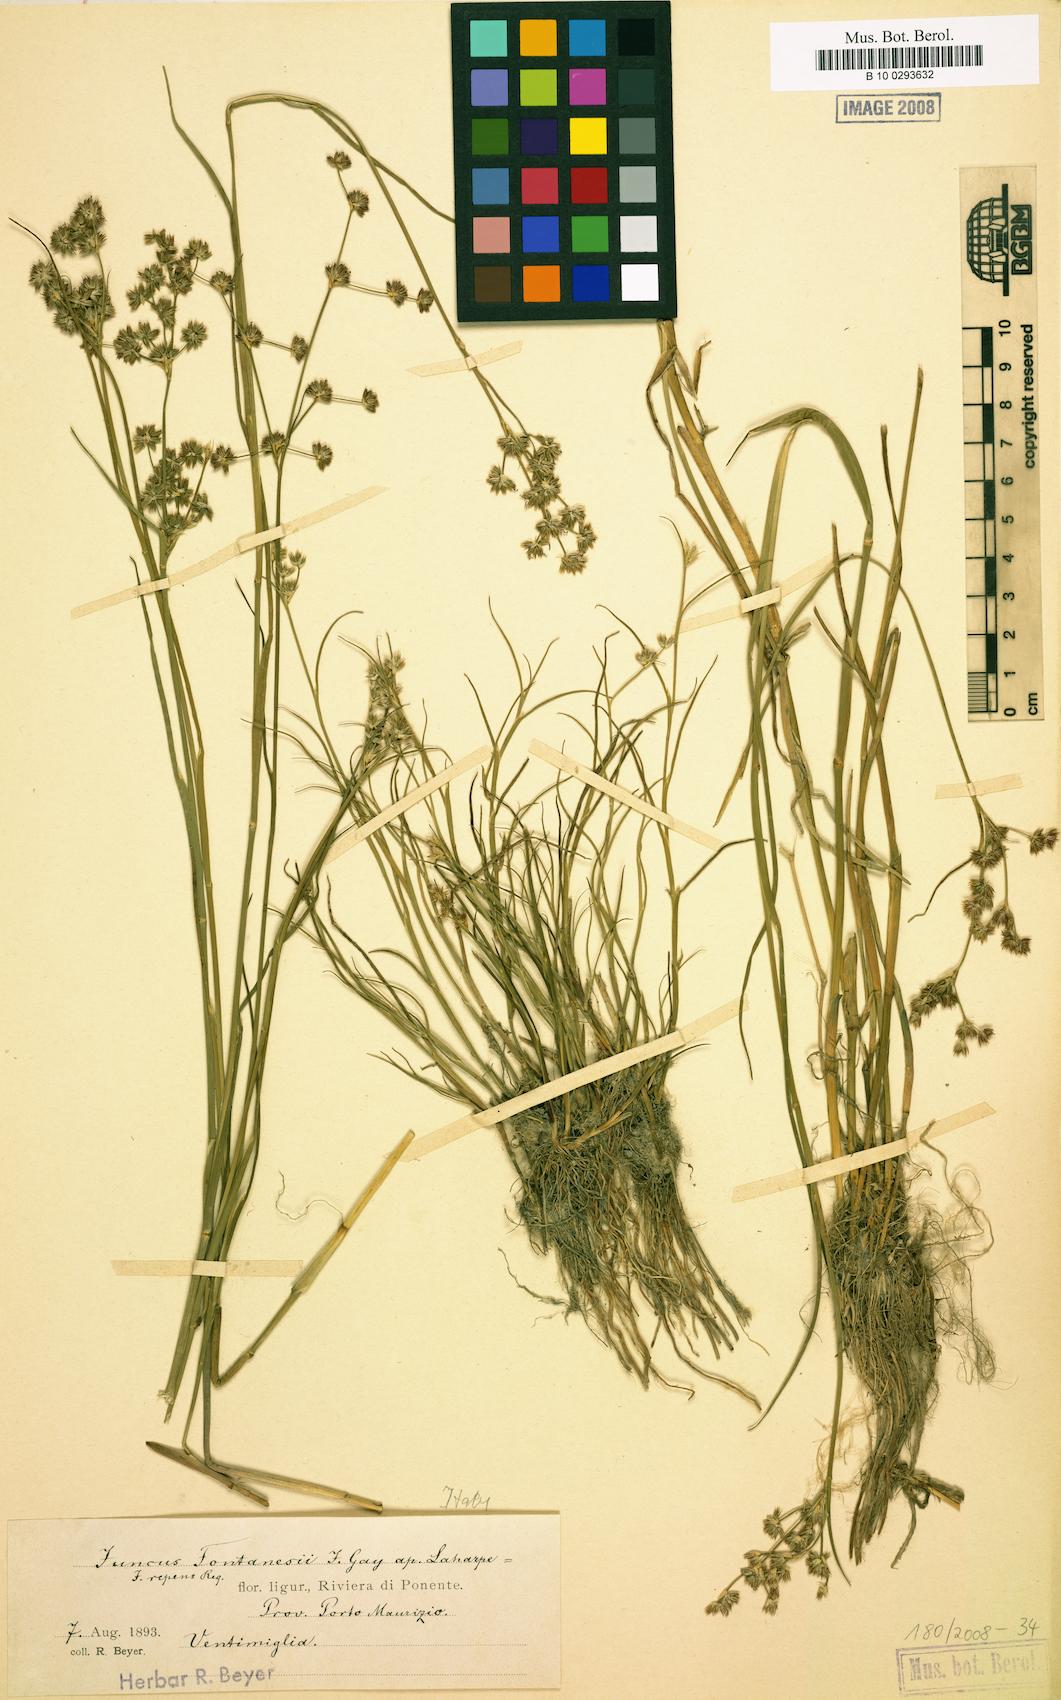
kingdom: Plantae
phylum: Tracheophyta
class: Liliopsida
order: Poales
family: Juncaceae
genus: Juncus
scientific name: Juncus fontanesii
